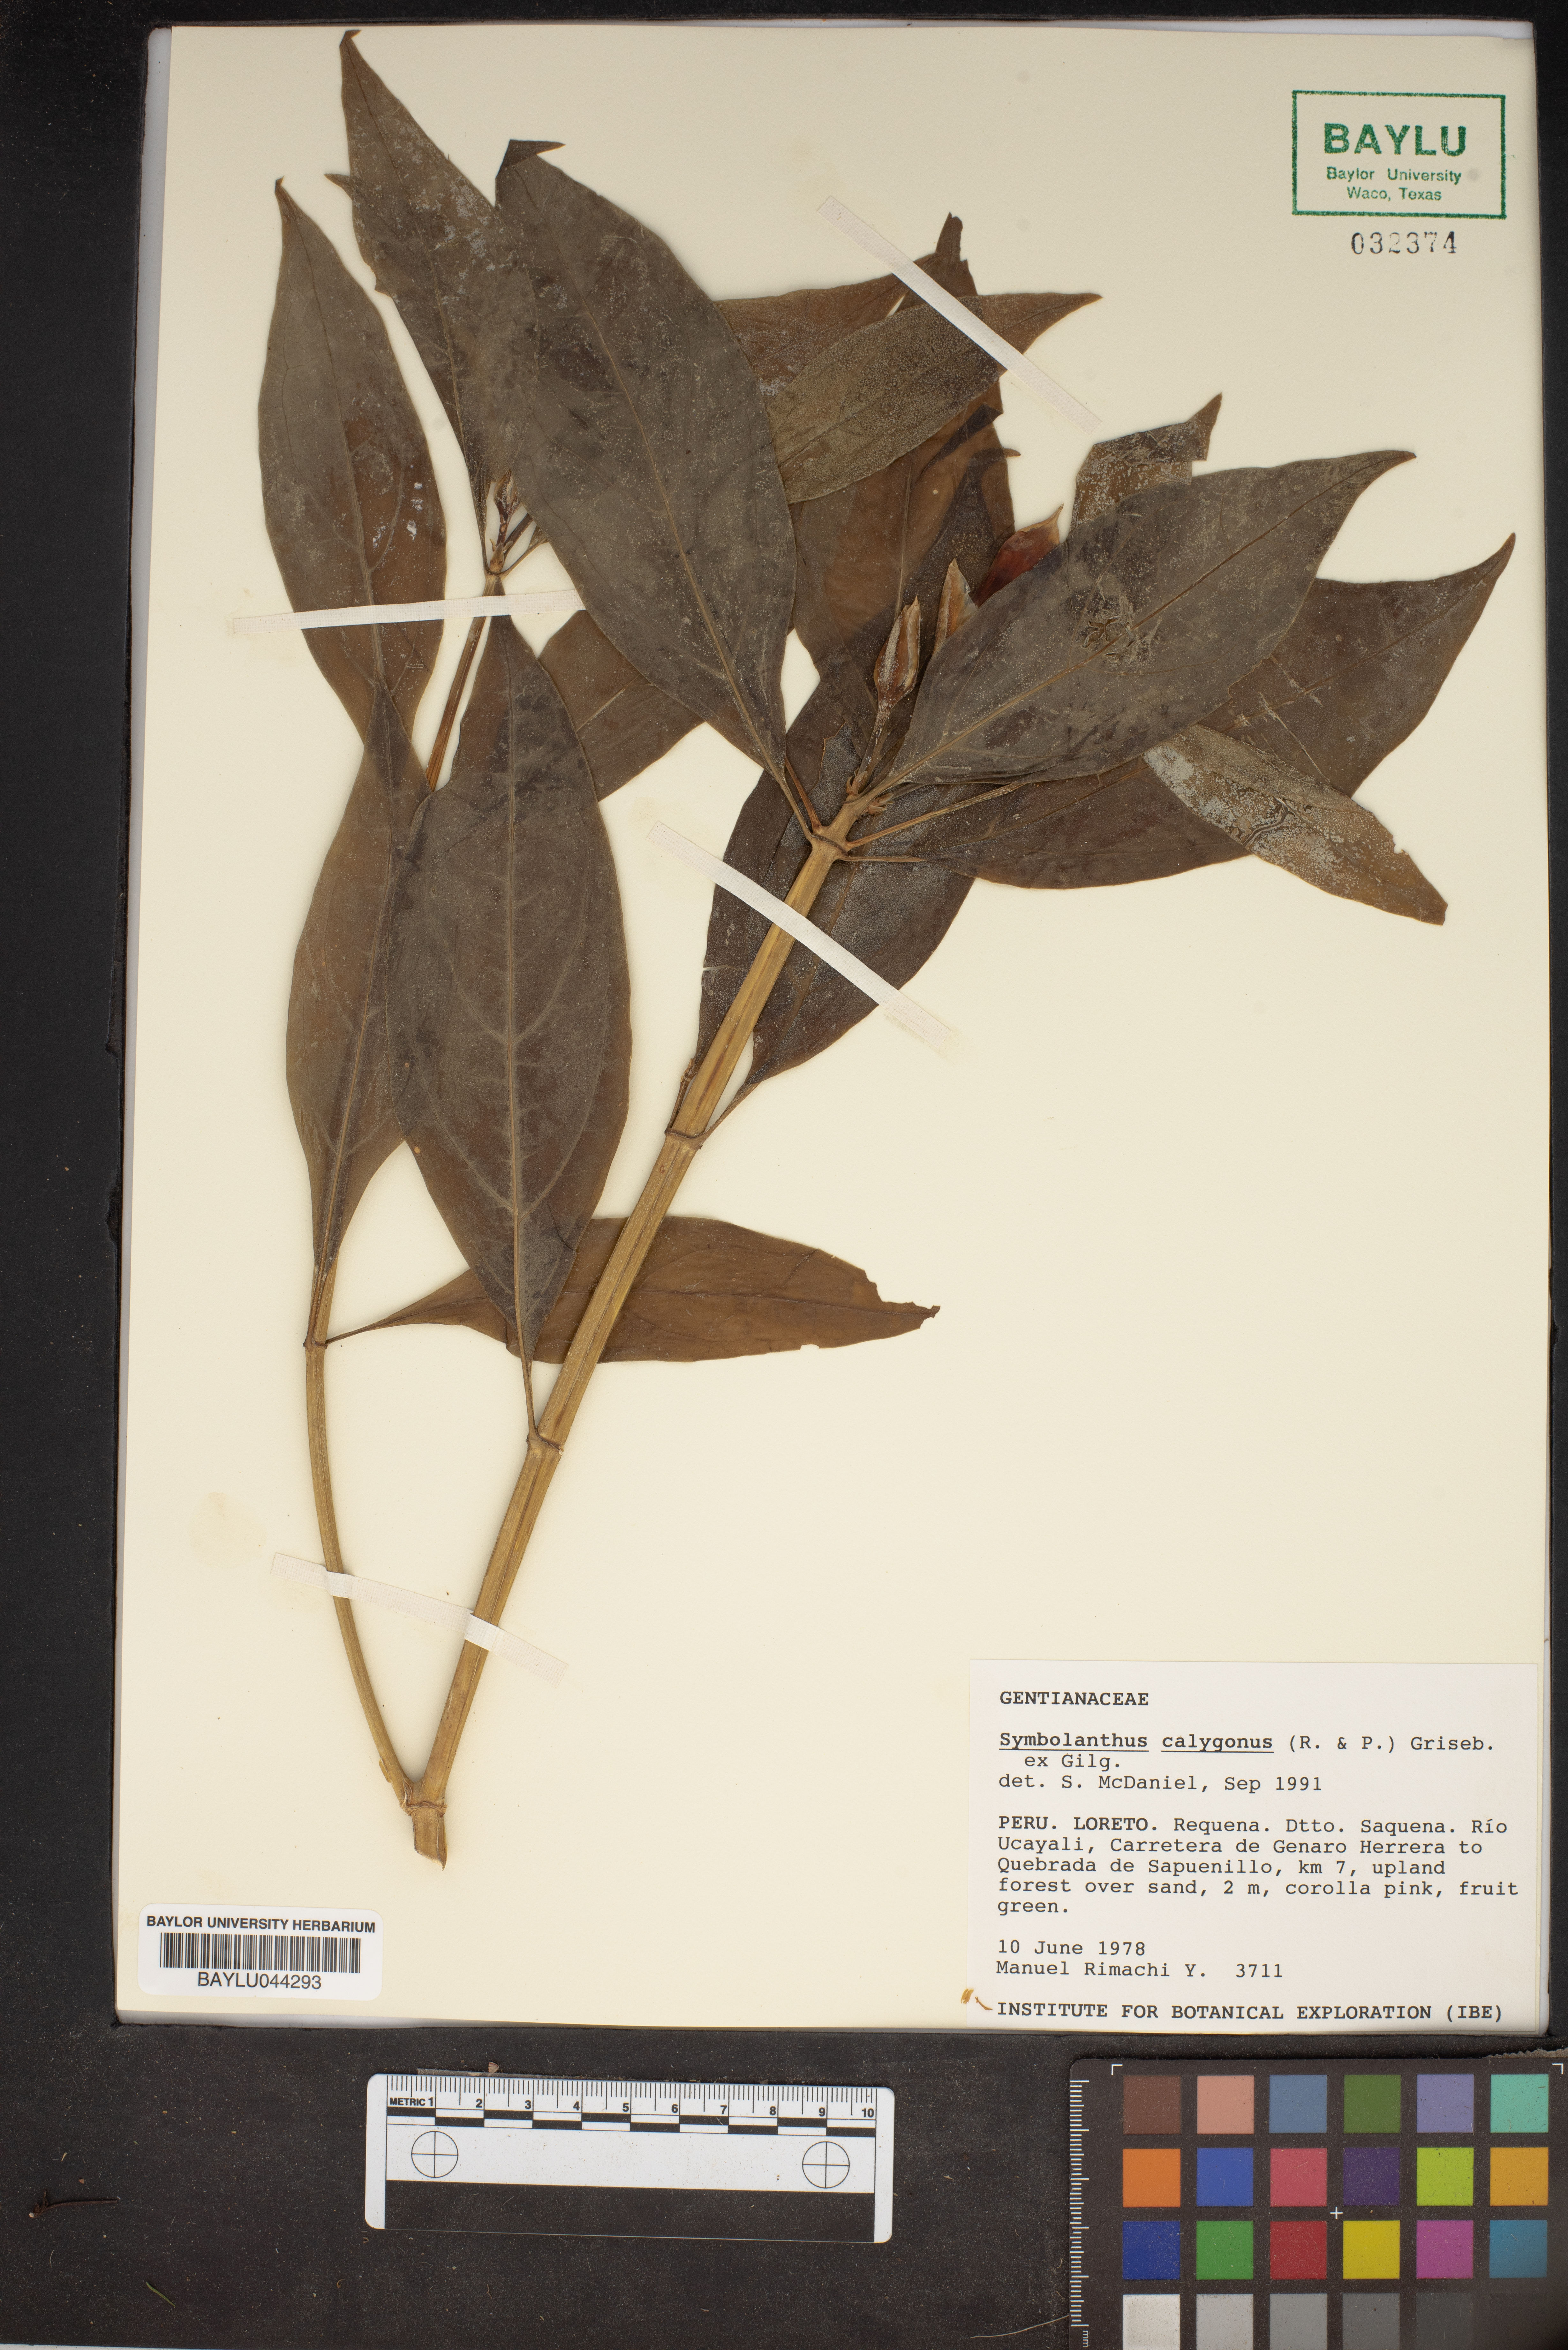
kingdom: Plantae
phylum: Tracheophyta
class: Magnoliopsida
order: Gentianales
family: Gentianaceae
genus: Symbolanthus
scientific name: Symbolanthus calygonus
